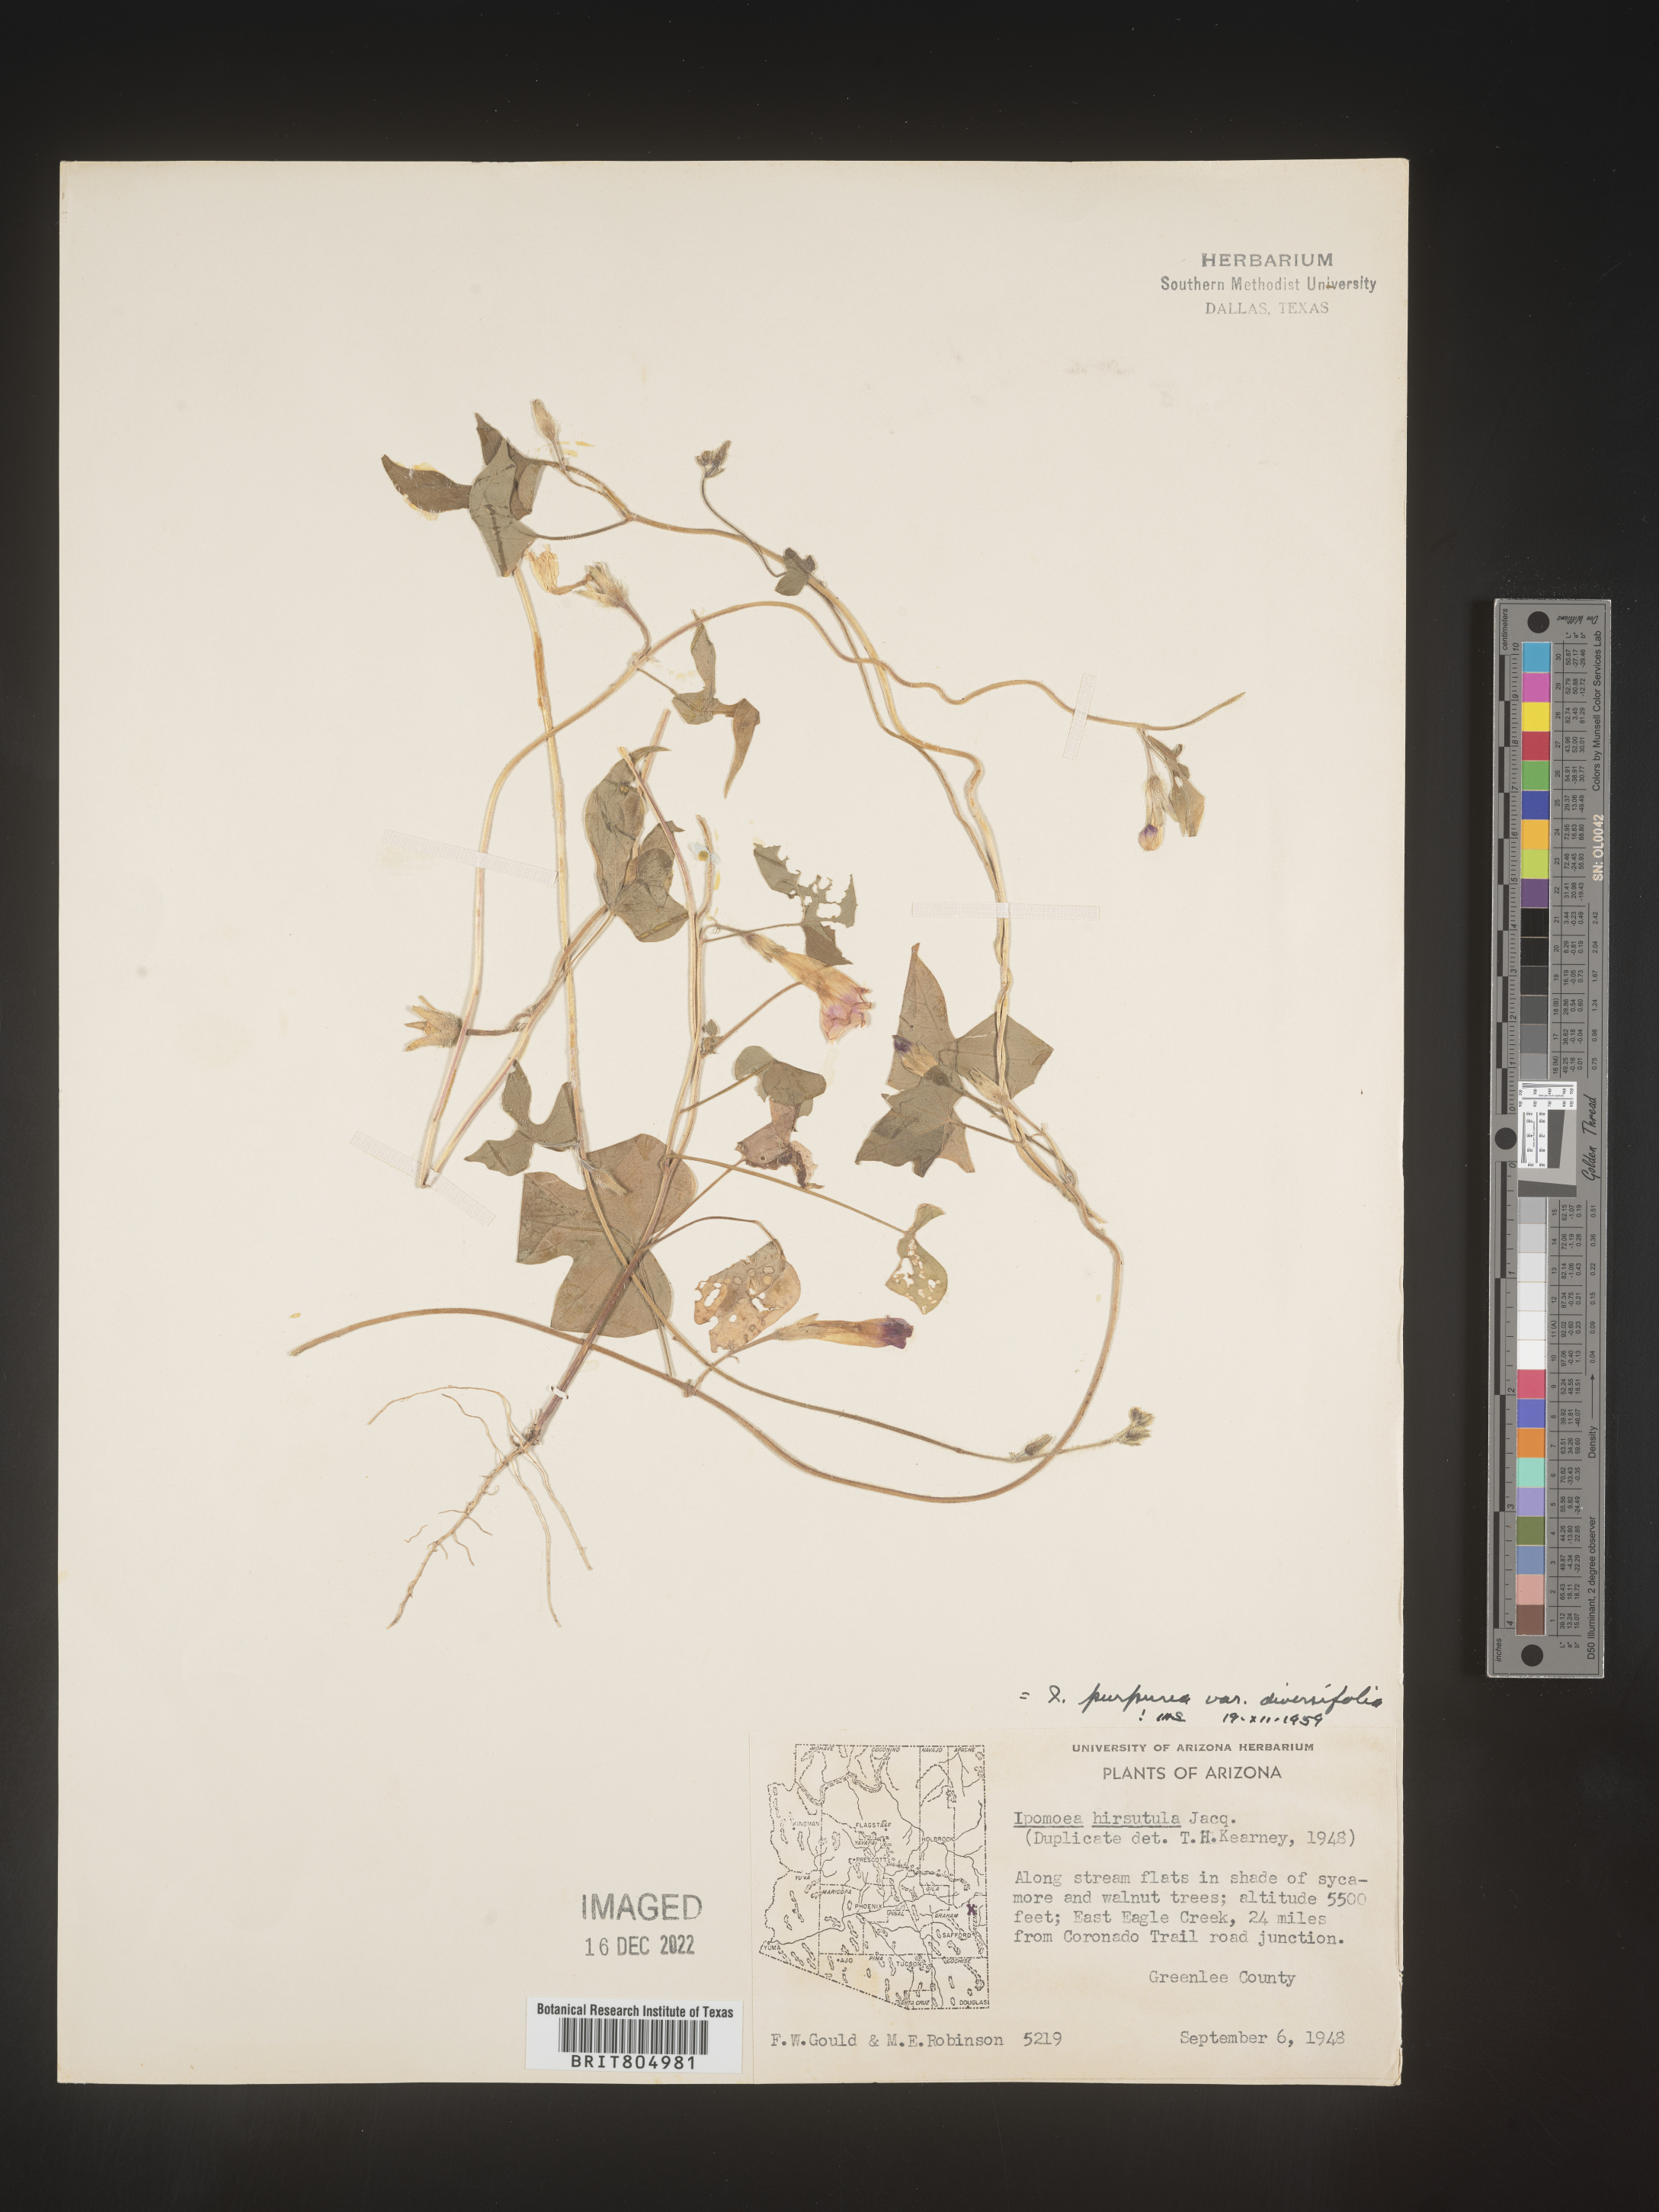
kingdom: Plantae
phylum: Tracheophyta
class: Magnoliopsida
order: Solanales
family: Convolvulaceae
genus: Ipomoea
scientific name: Ipomoea purpurea
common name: Common morning-glory
